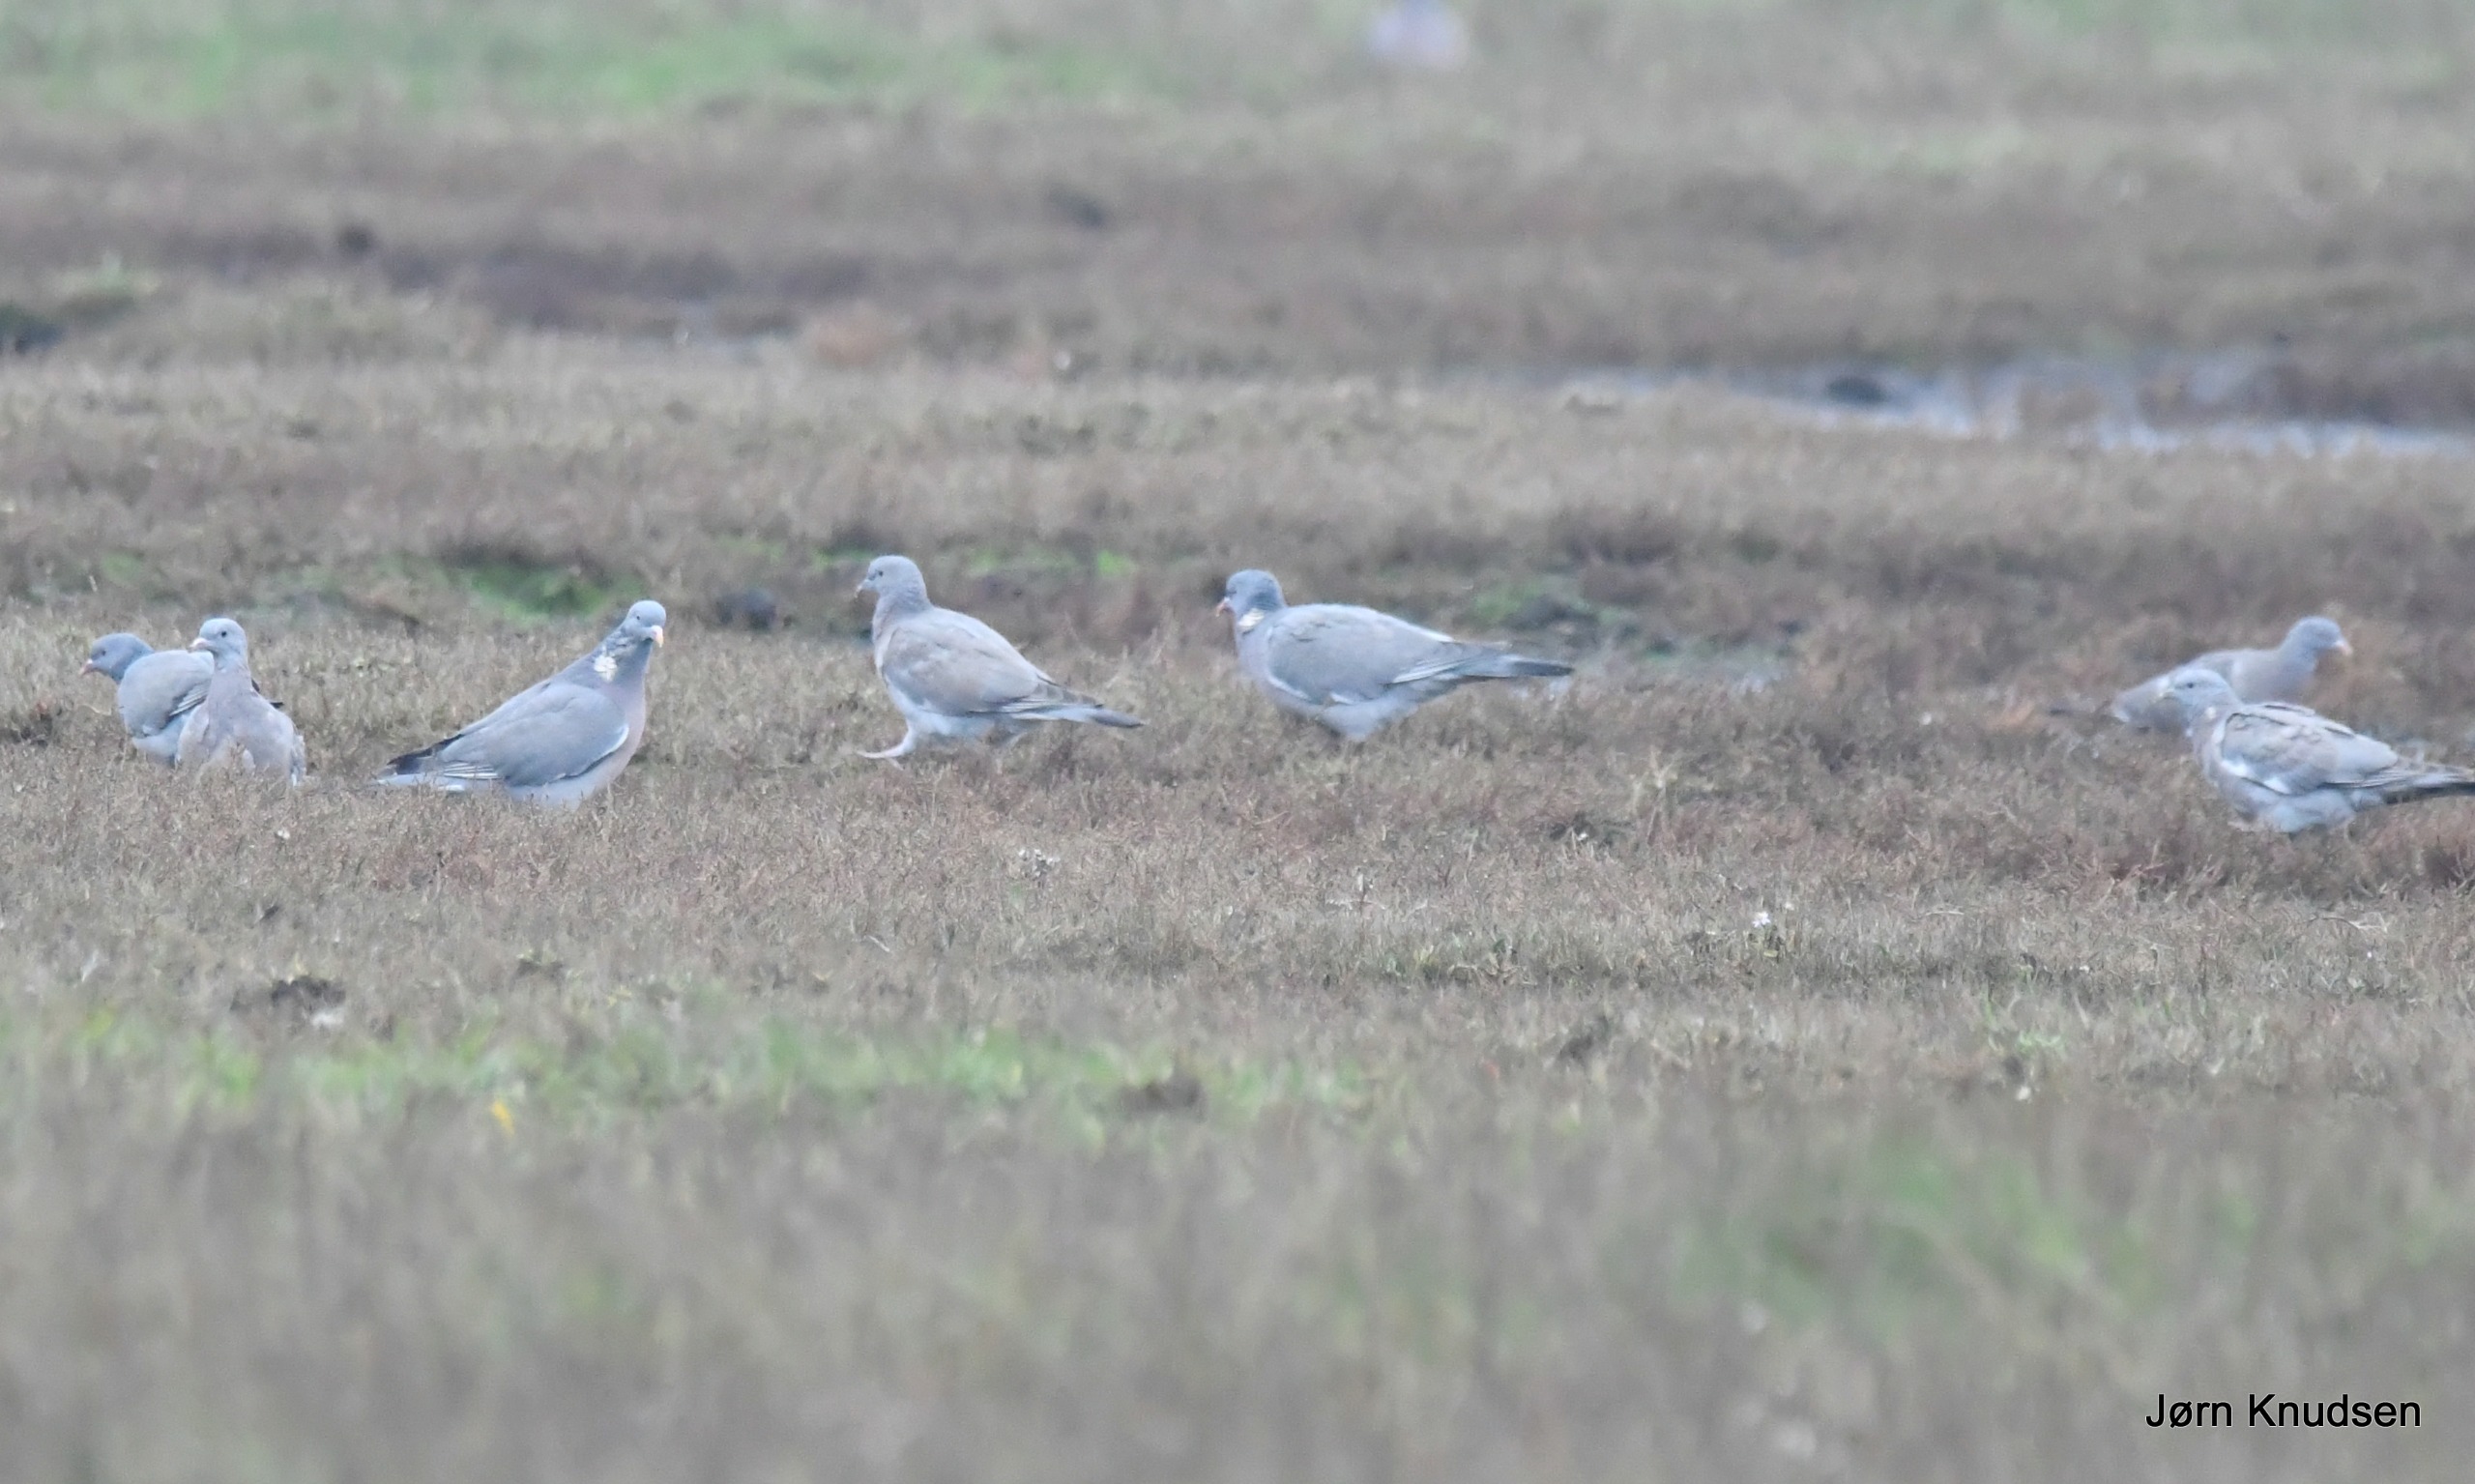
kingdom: Animalia
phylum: Chordata
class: Aves
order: Columbiformes
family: Columbidae
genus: Columba
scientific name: Columba palumbus
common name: Ringdue
